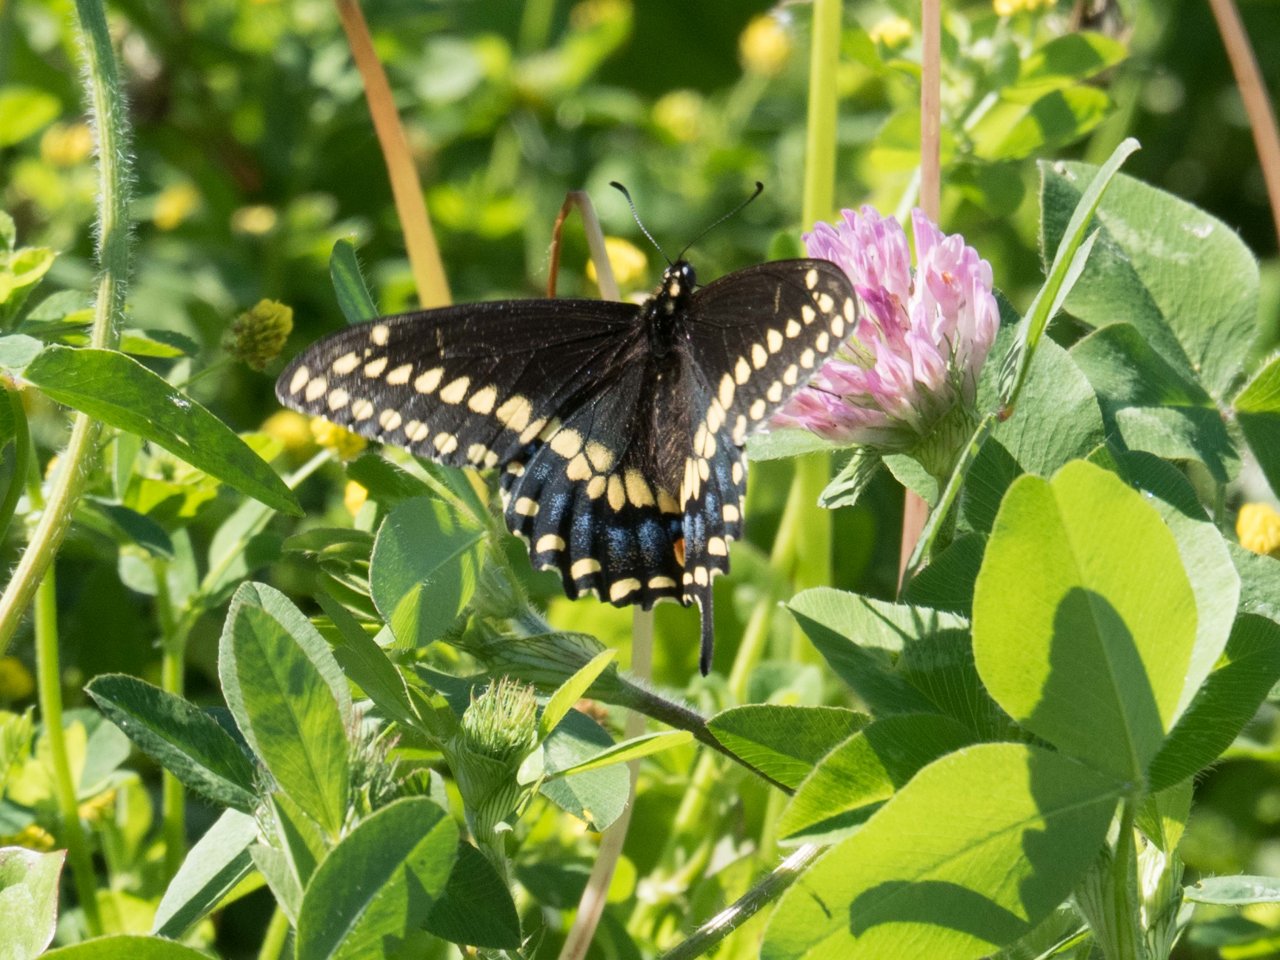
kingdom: Animalia
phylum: Arthropoda
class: Insecta
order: Lepidoptera
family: Papilionidae
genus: Papilio
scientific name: Papilio polyxenes
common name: Black Swallowtail
